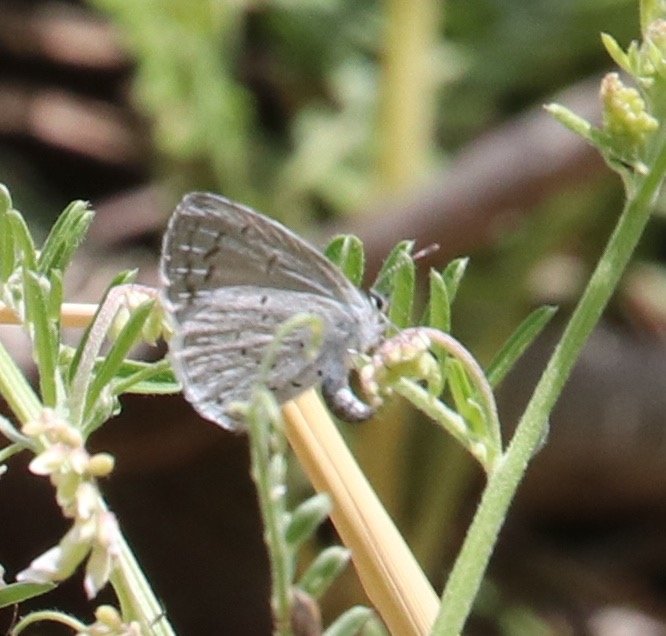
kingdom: Animalia
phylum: Arthropoda
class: Insecta
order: Lepidoptera
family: Lycaenidae
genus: Celastrina
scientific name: Celastrina ladon
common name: Echo Azure
